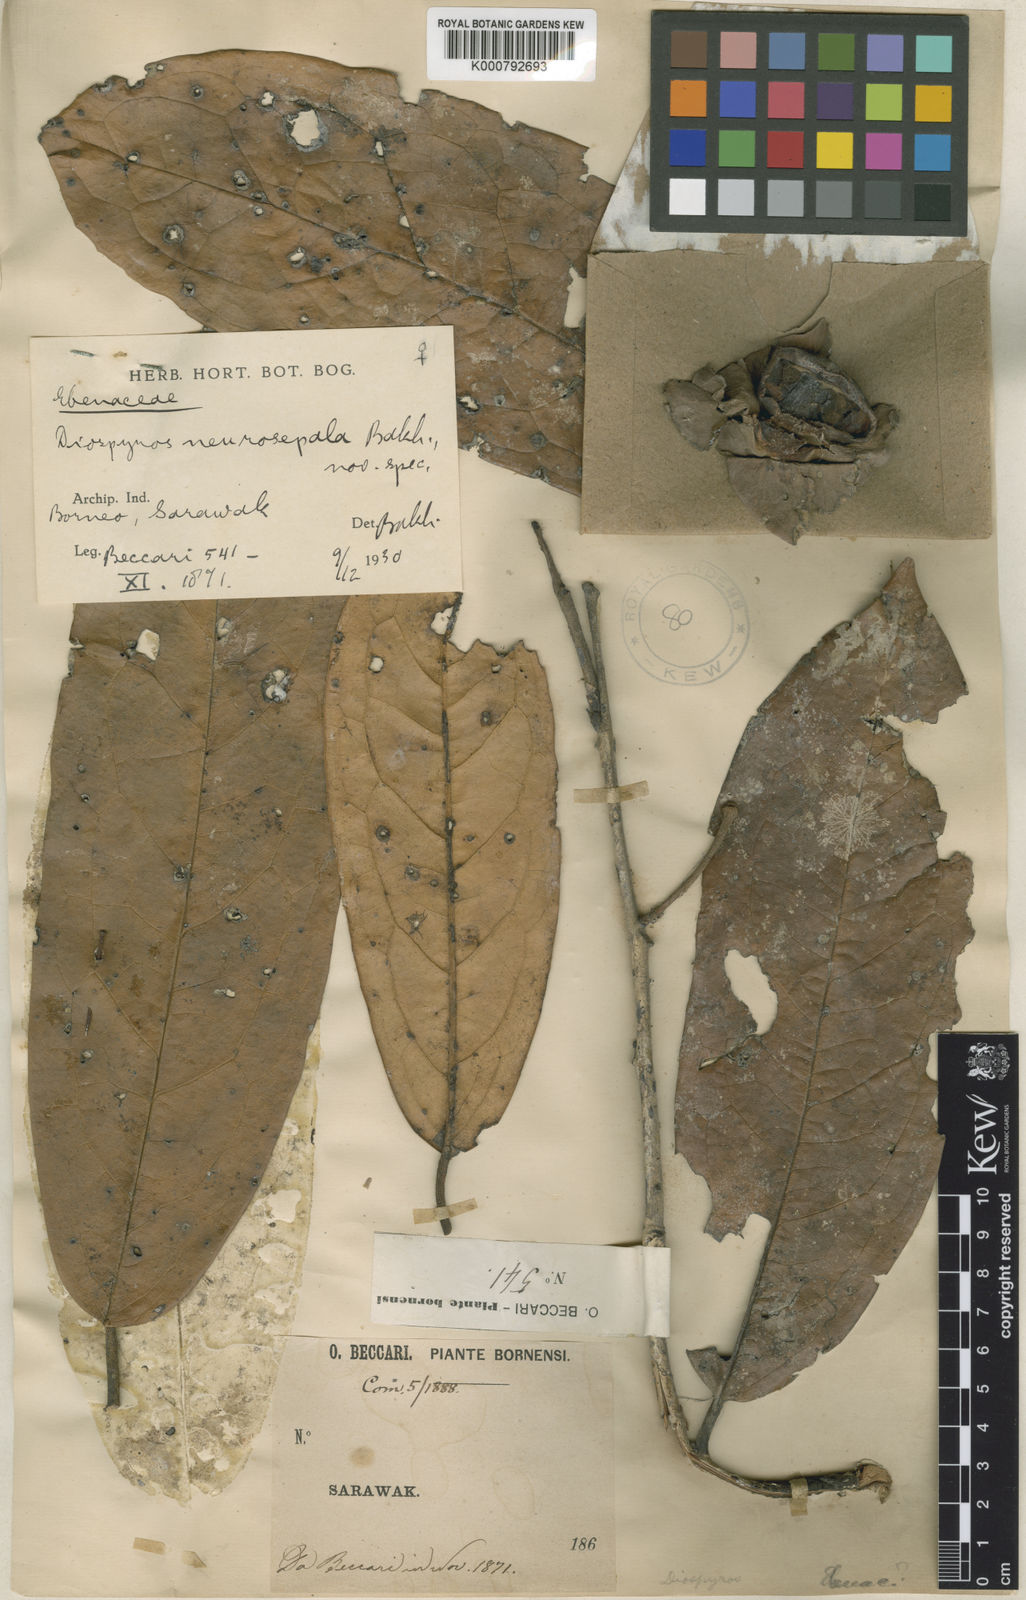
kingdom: Plantae
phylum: Tracheophyta
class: Magnoliopsida
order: Ericales
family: Ebenaceae
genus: Diospyros
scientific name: Diospyros neurosepala
